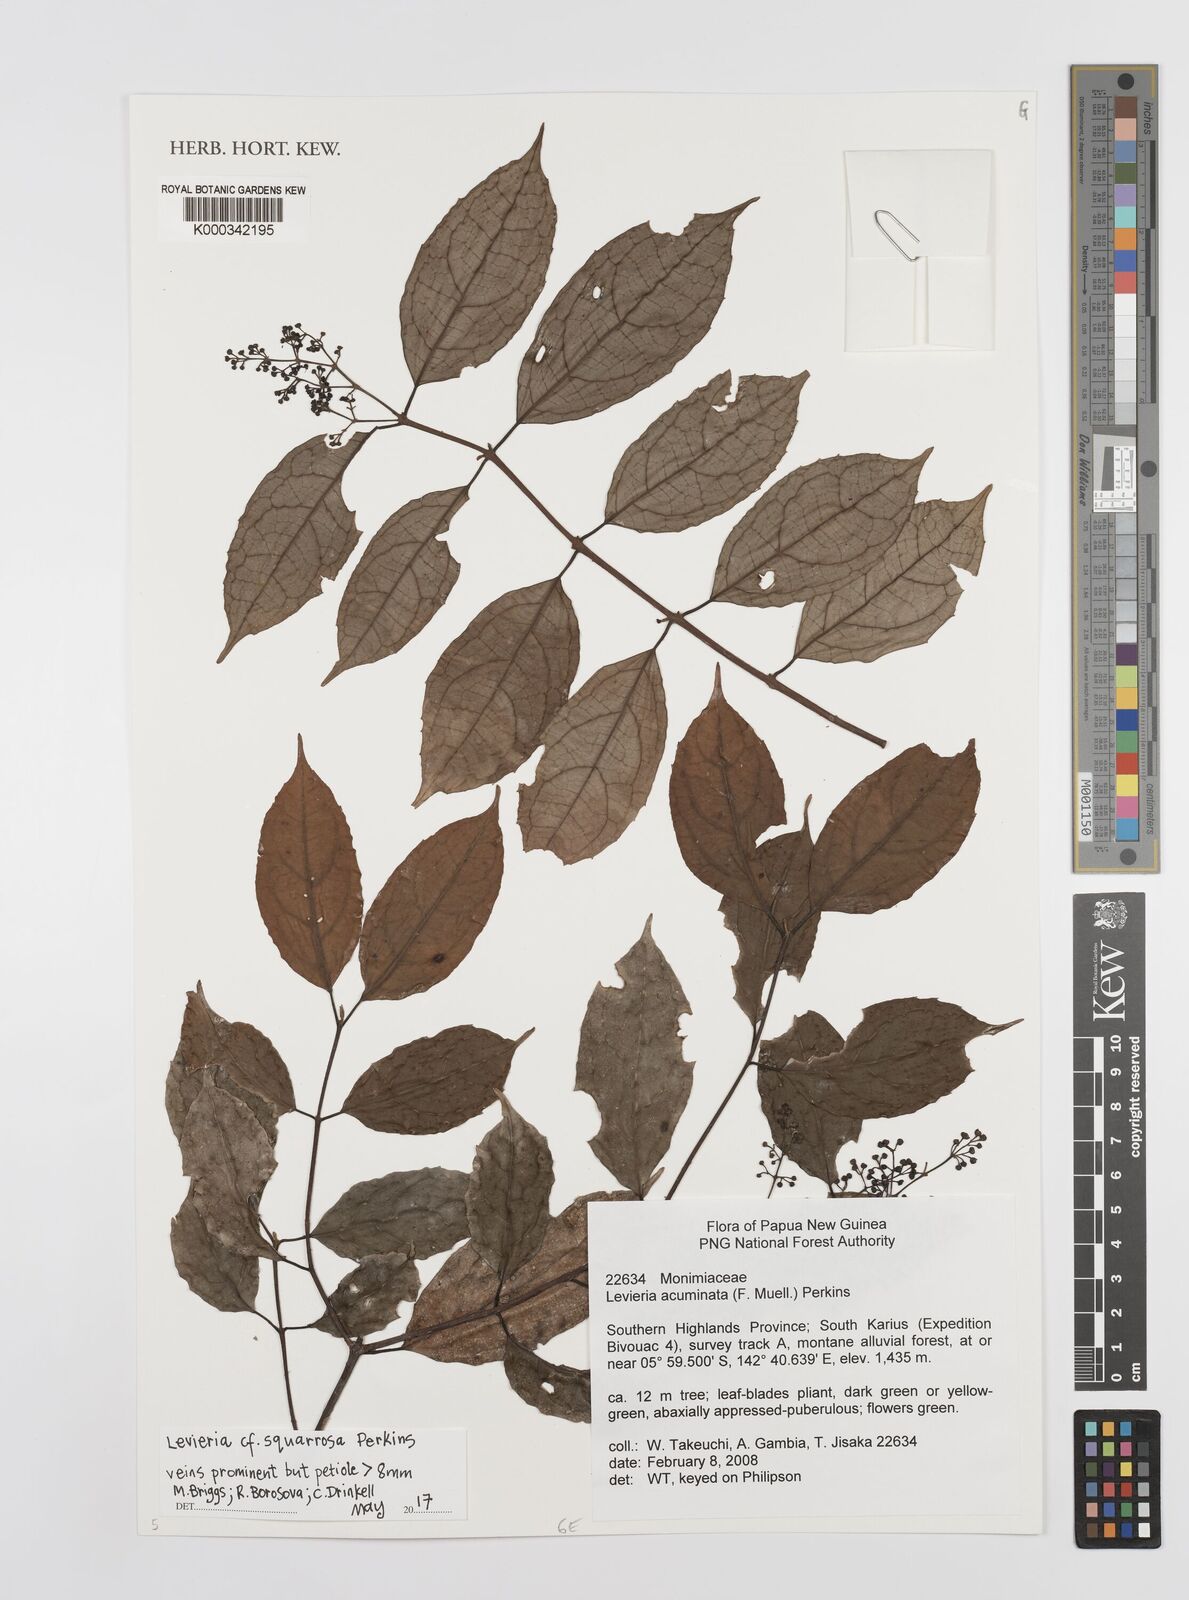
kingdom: Plantae
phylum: Tracheophyta
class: Magnoliopsida
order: Laurales
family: Monimiaceae
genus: Levieria
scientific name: Levieria squarrosa
